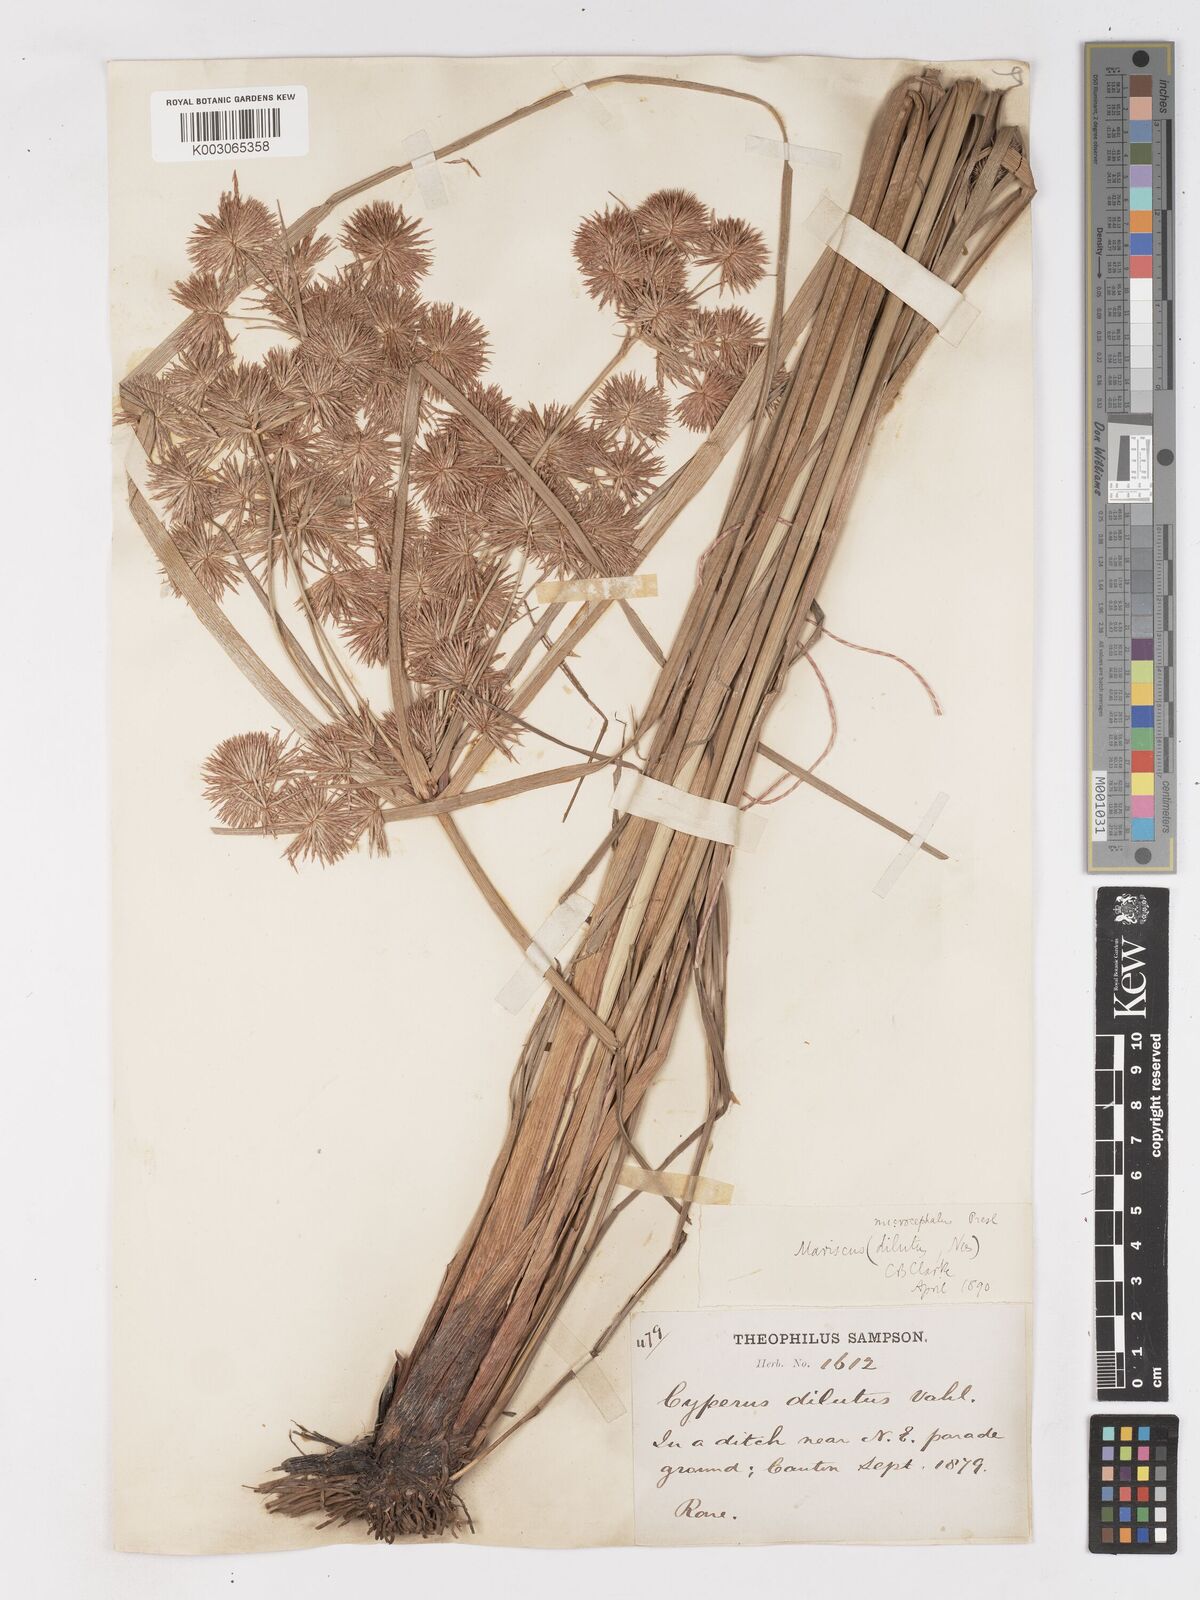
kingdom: Plantae
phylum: Tracheophyta
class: Liliopsida
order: Poales
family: Cyperaceae
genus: Cyperus
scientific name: Cyperus compactus
